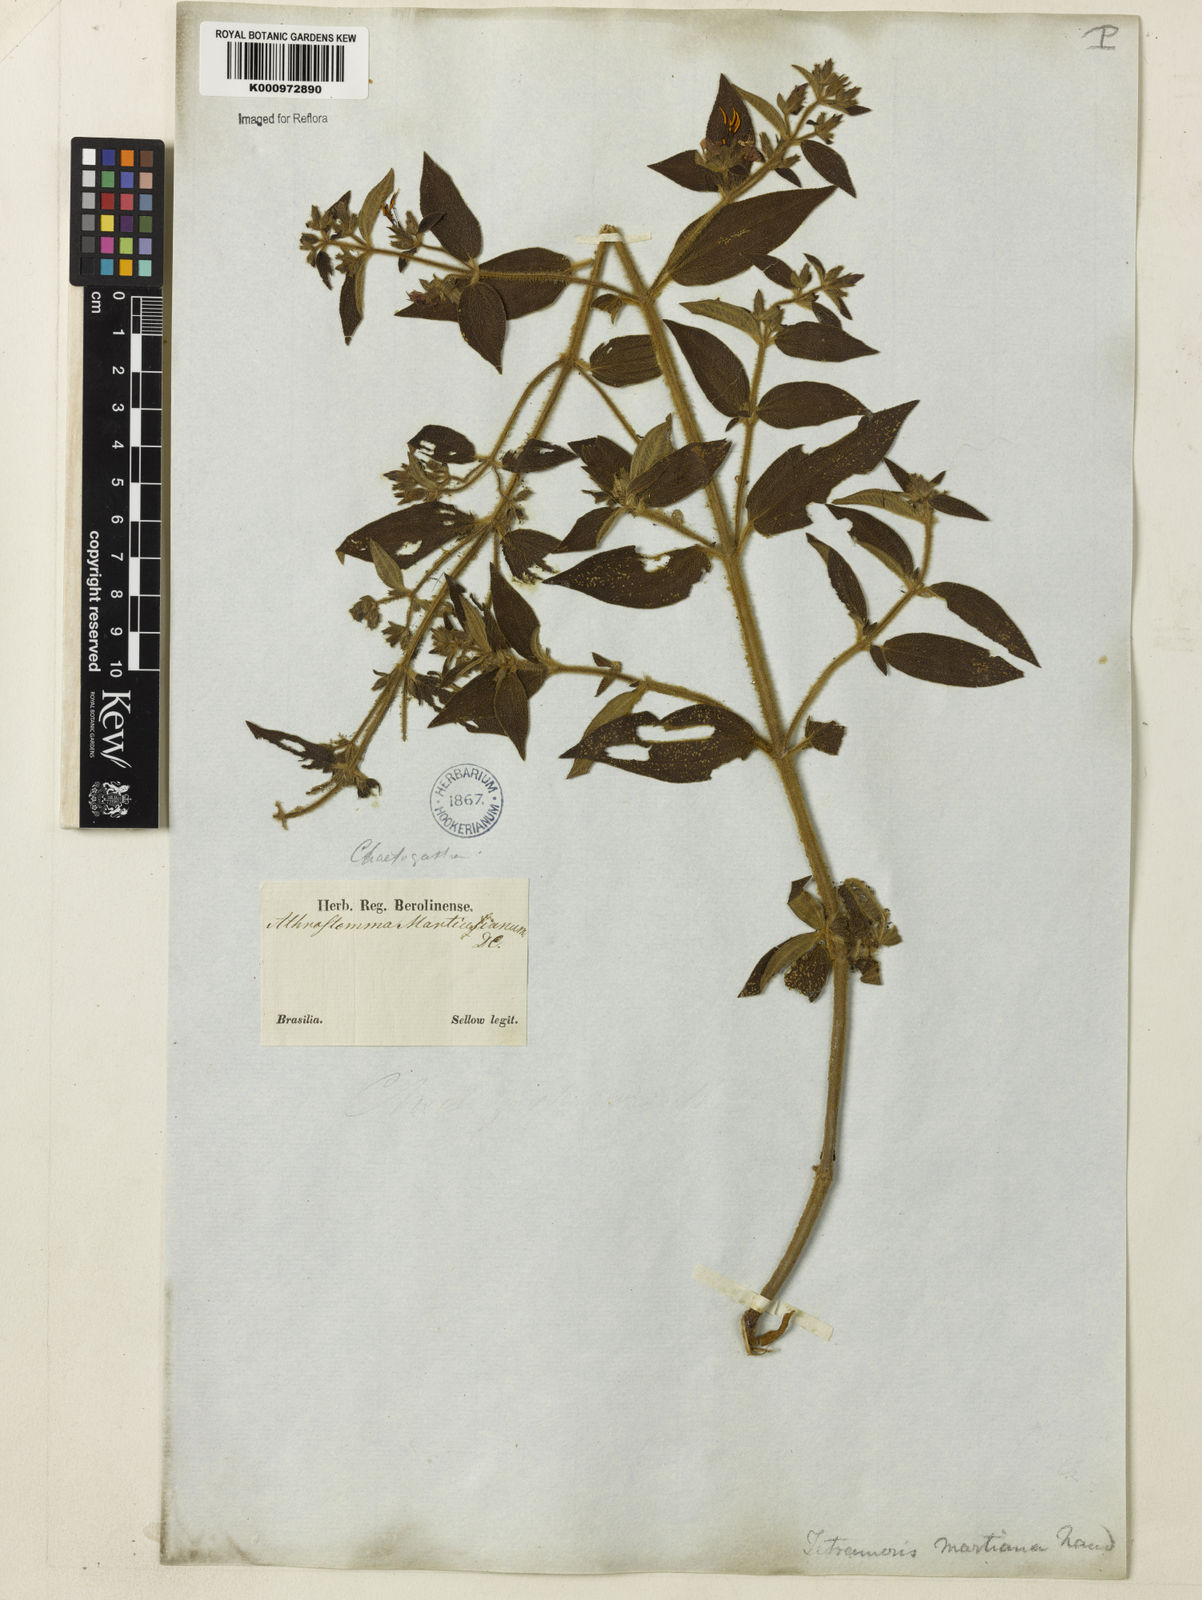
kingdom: Plantae
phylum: Tracheophyta
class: Magnoliopsida
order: Myrtales
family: Melastomataceae
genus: Chaetogastra
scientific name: Chaetogastra sebastianopolitana
